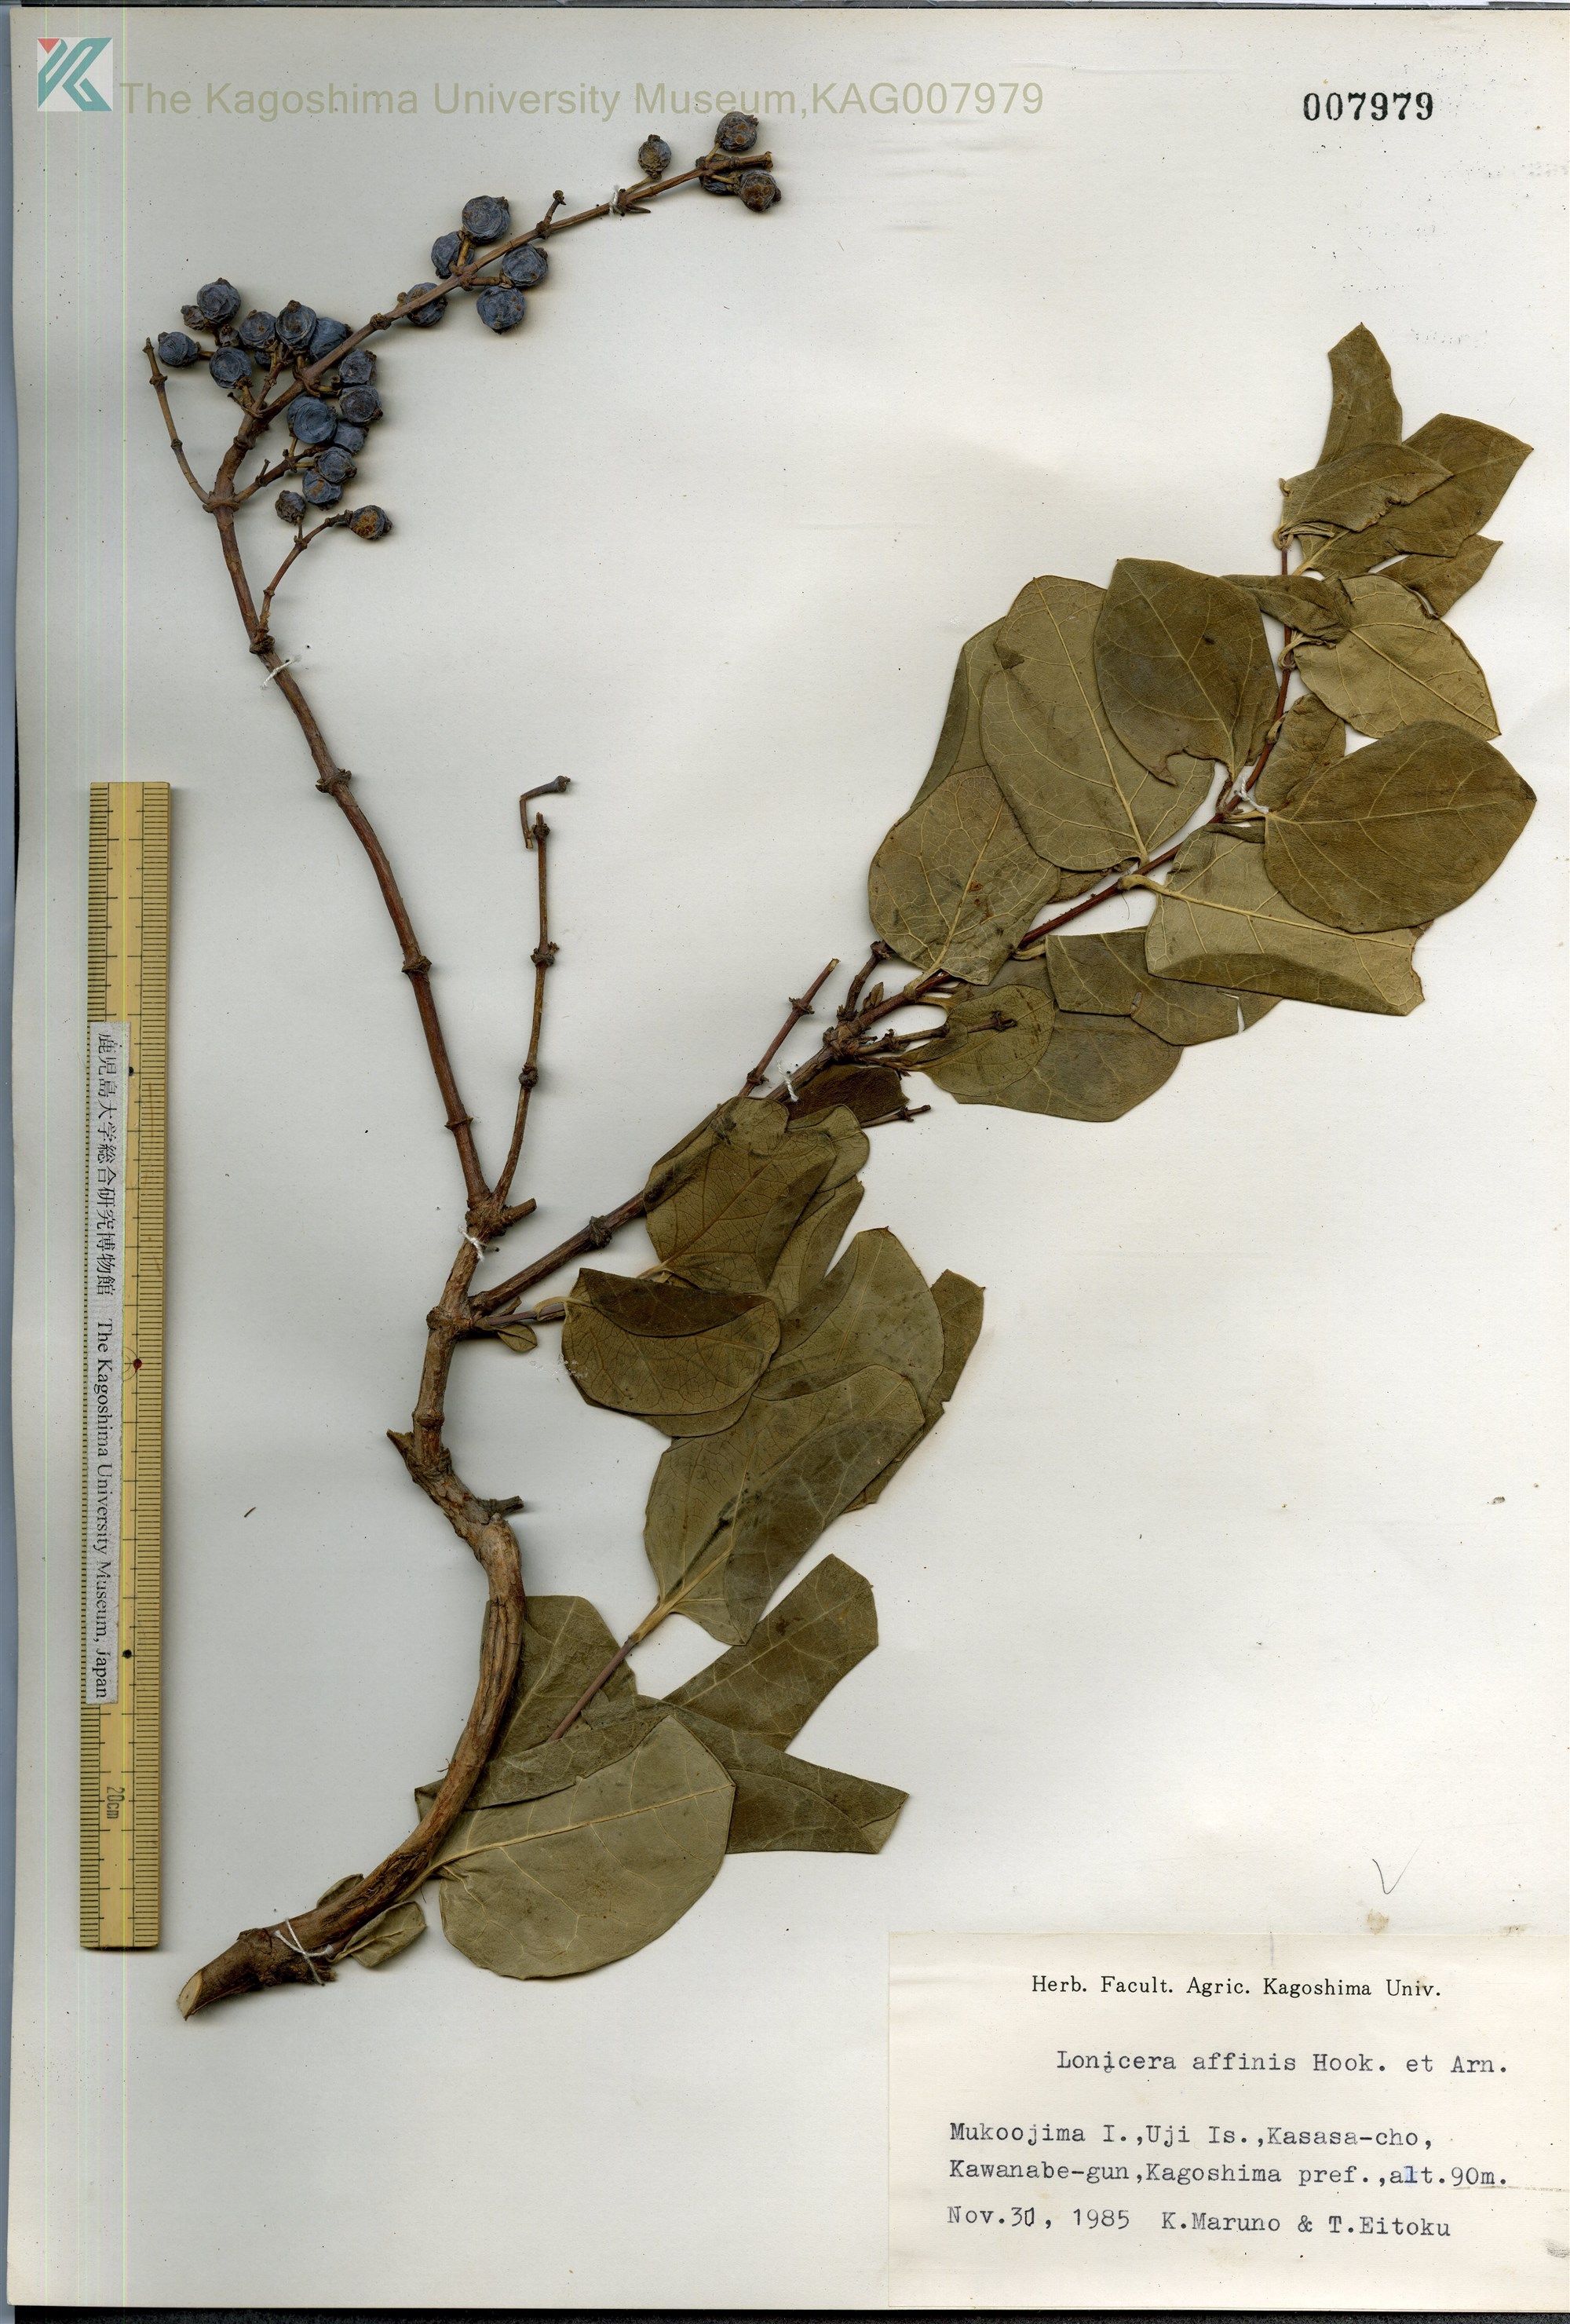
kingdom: Plantae
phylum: Tracheophyta
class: Magnoliopsida
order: Dipsacales
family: Caprifoliaceae
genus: Lonicera
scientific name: Lonicera affinis
